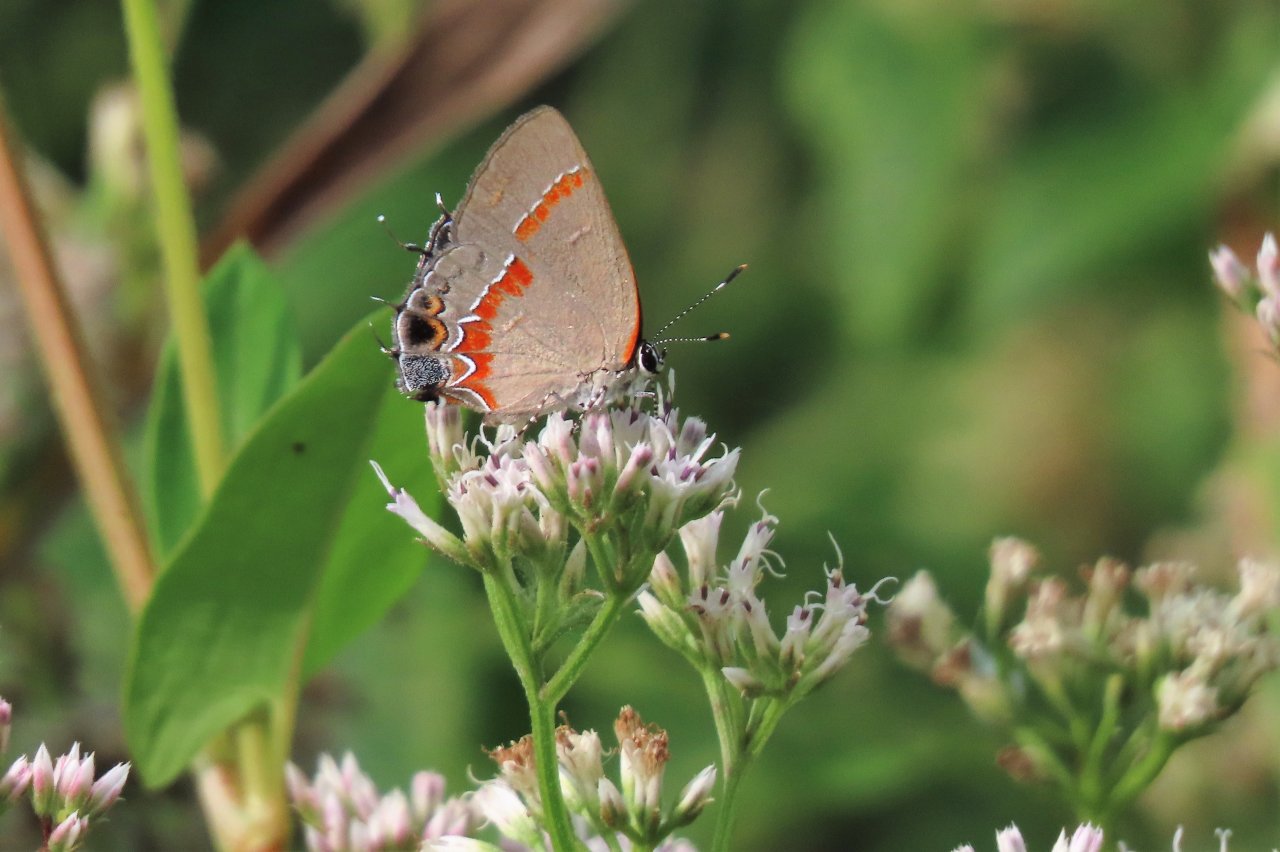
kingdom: Animalia
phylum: Arthropoda
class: Insecta
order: Lepidoptera
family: Lycaenidae
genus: Calycopis
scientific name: Calycopis cecrops
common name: Red-banded Hairstreak
